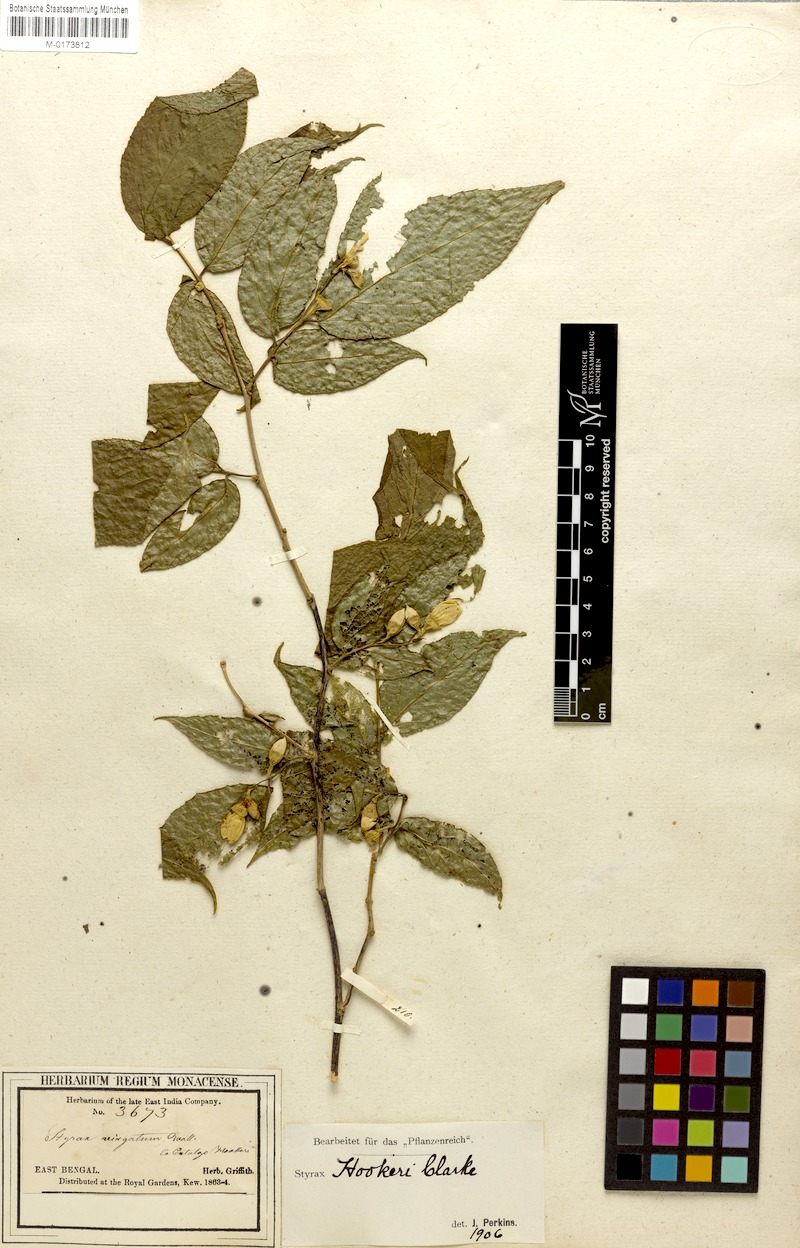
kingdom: Plantae
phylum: Tracheophyta
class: Magnoliopsida
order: Ericales
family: Styracaceae
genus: Styrax
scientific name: Styrax hookeri
